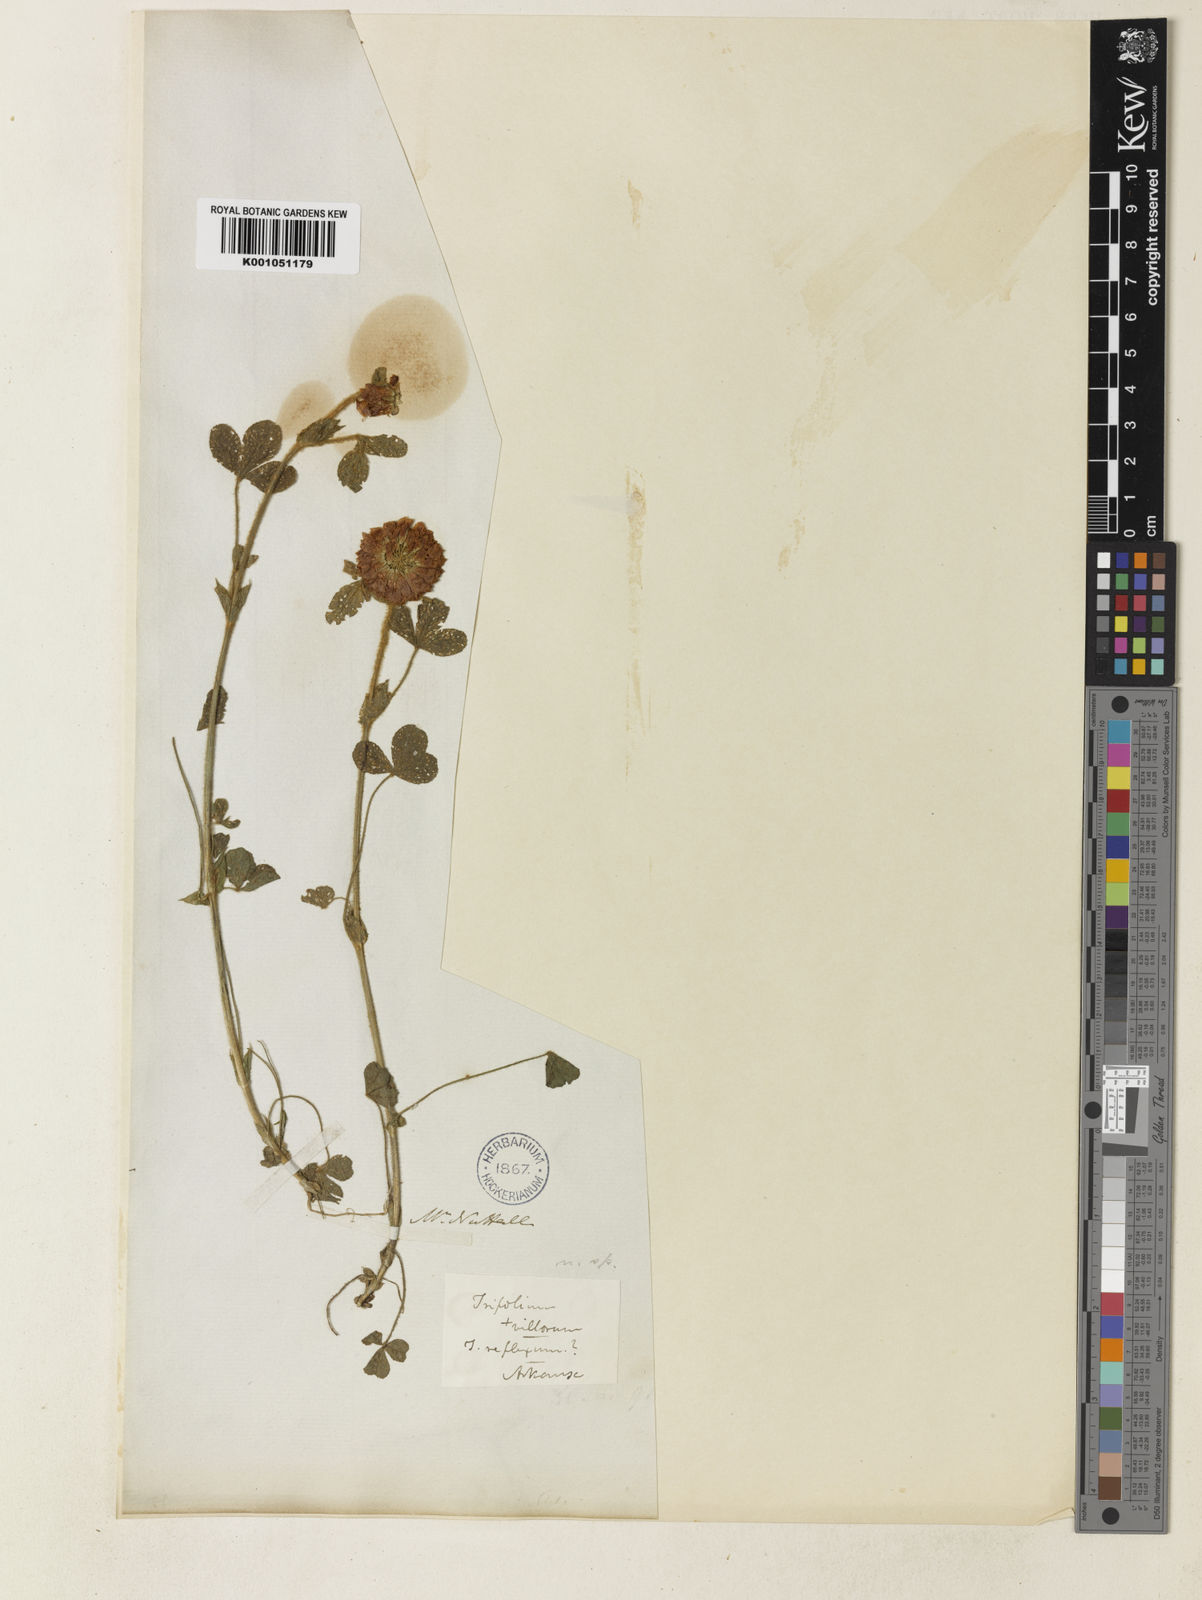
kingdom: Plantae
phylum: Tracheophyta
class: Magnoliopsida
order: Fabales
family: Fabaceae
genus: Trifolium
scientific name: Trifolium reflexum
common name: Buffalo clover
